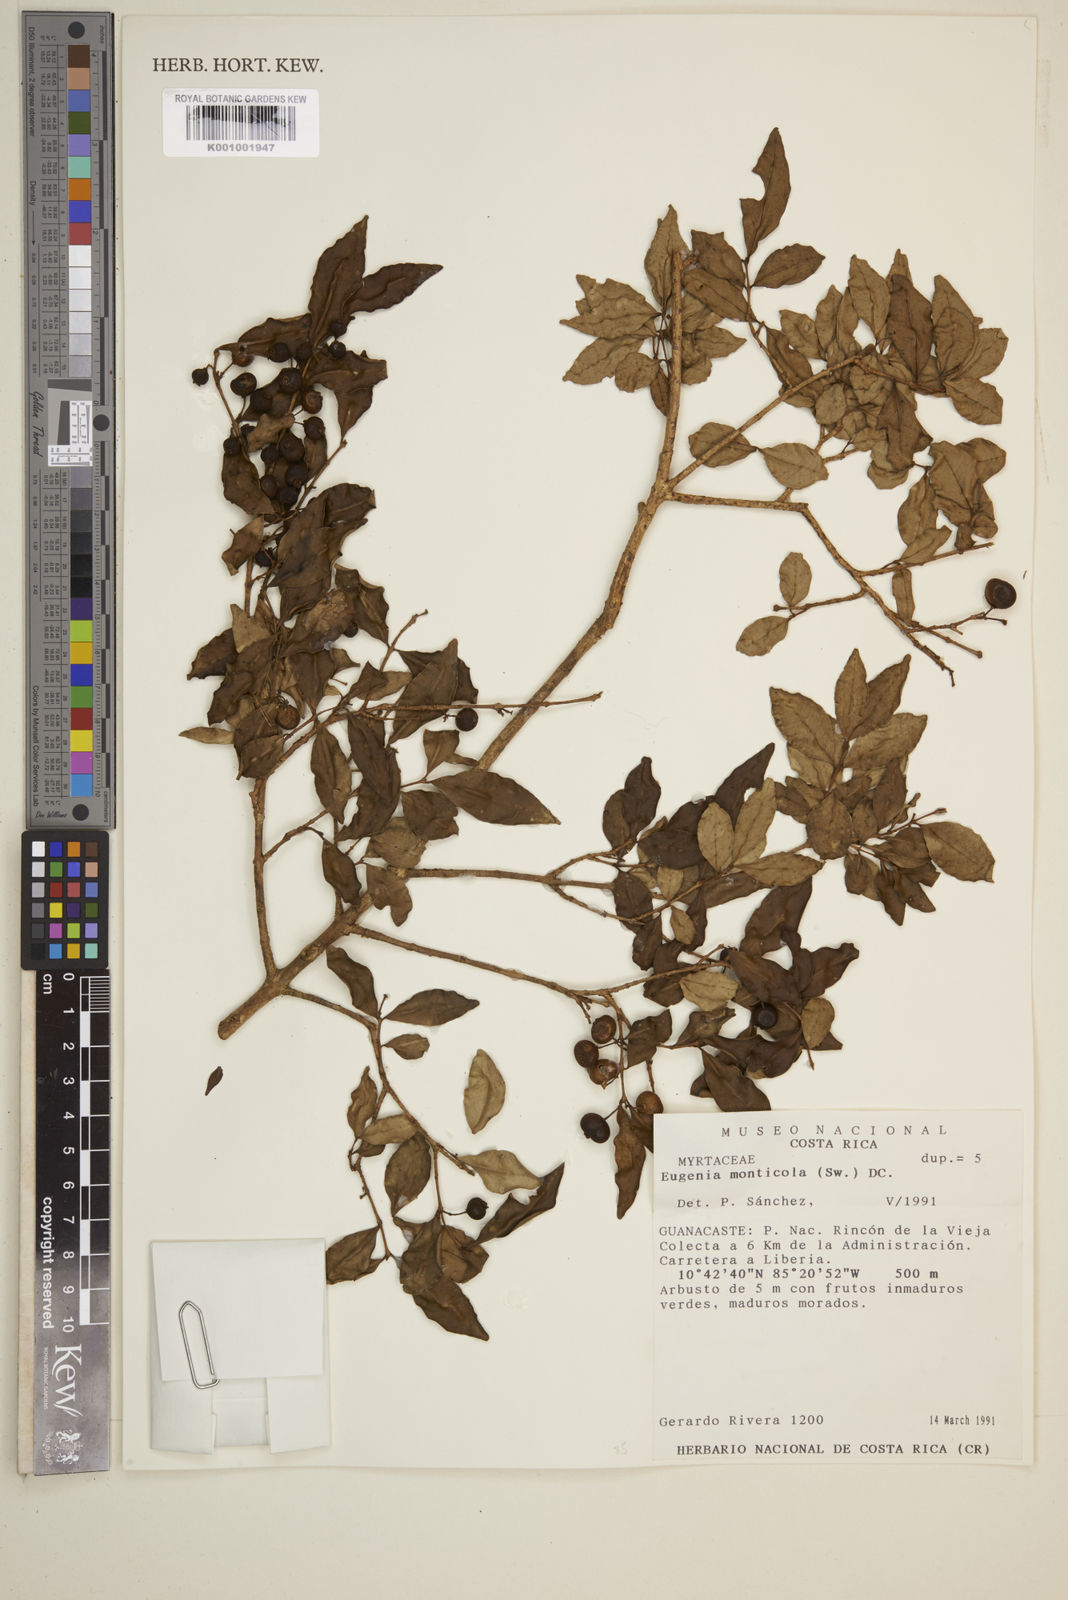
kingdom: Plantae
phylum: Tracheophyta
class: Magnoliopsida
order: Myrtales
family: Myrtaceae
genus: Eugenia
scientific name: Eugenia monticola
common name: Birds berry
